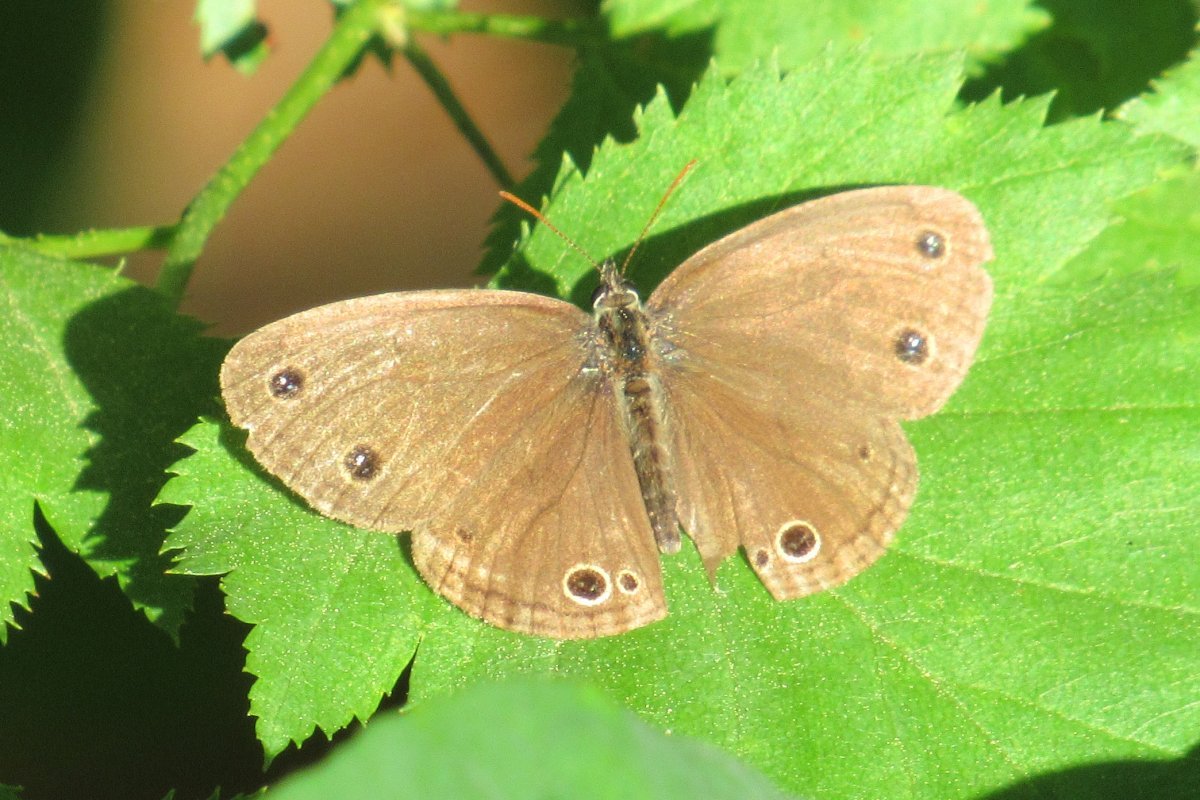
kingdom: Animalia
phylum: Arthropoda
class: Insecta
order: Lepidoptera
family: Nymphalidae
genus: Euptychia
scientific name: Euptychia cymela
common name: Little Wood Satyr
